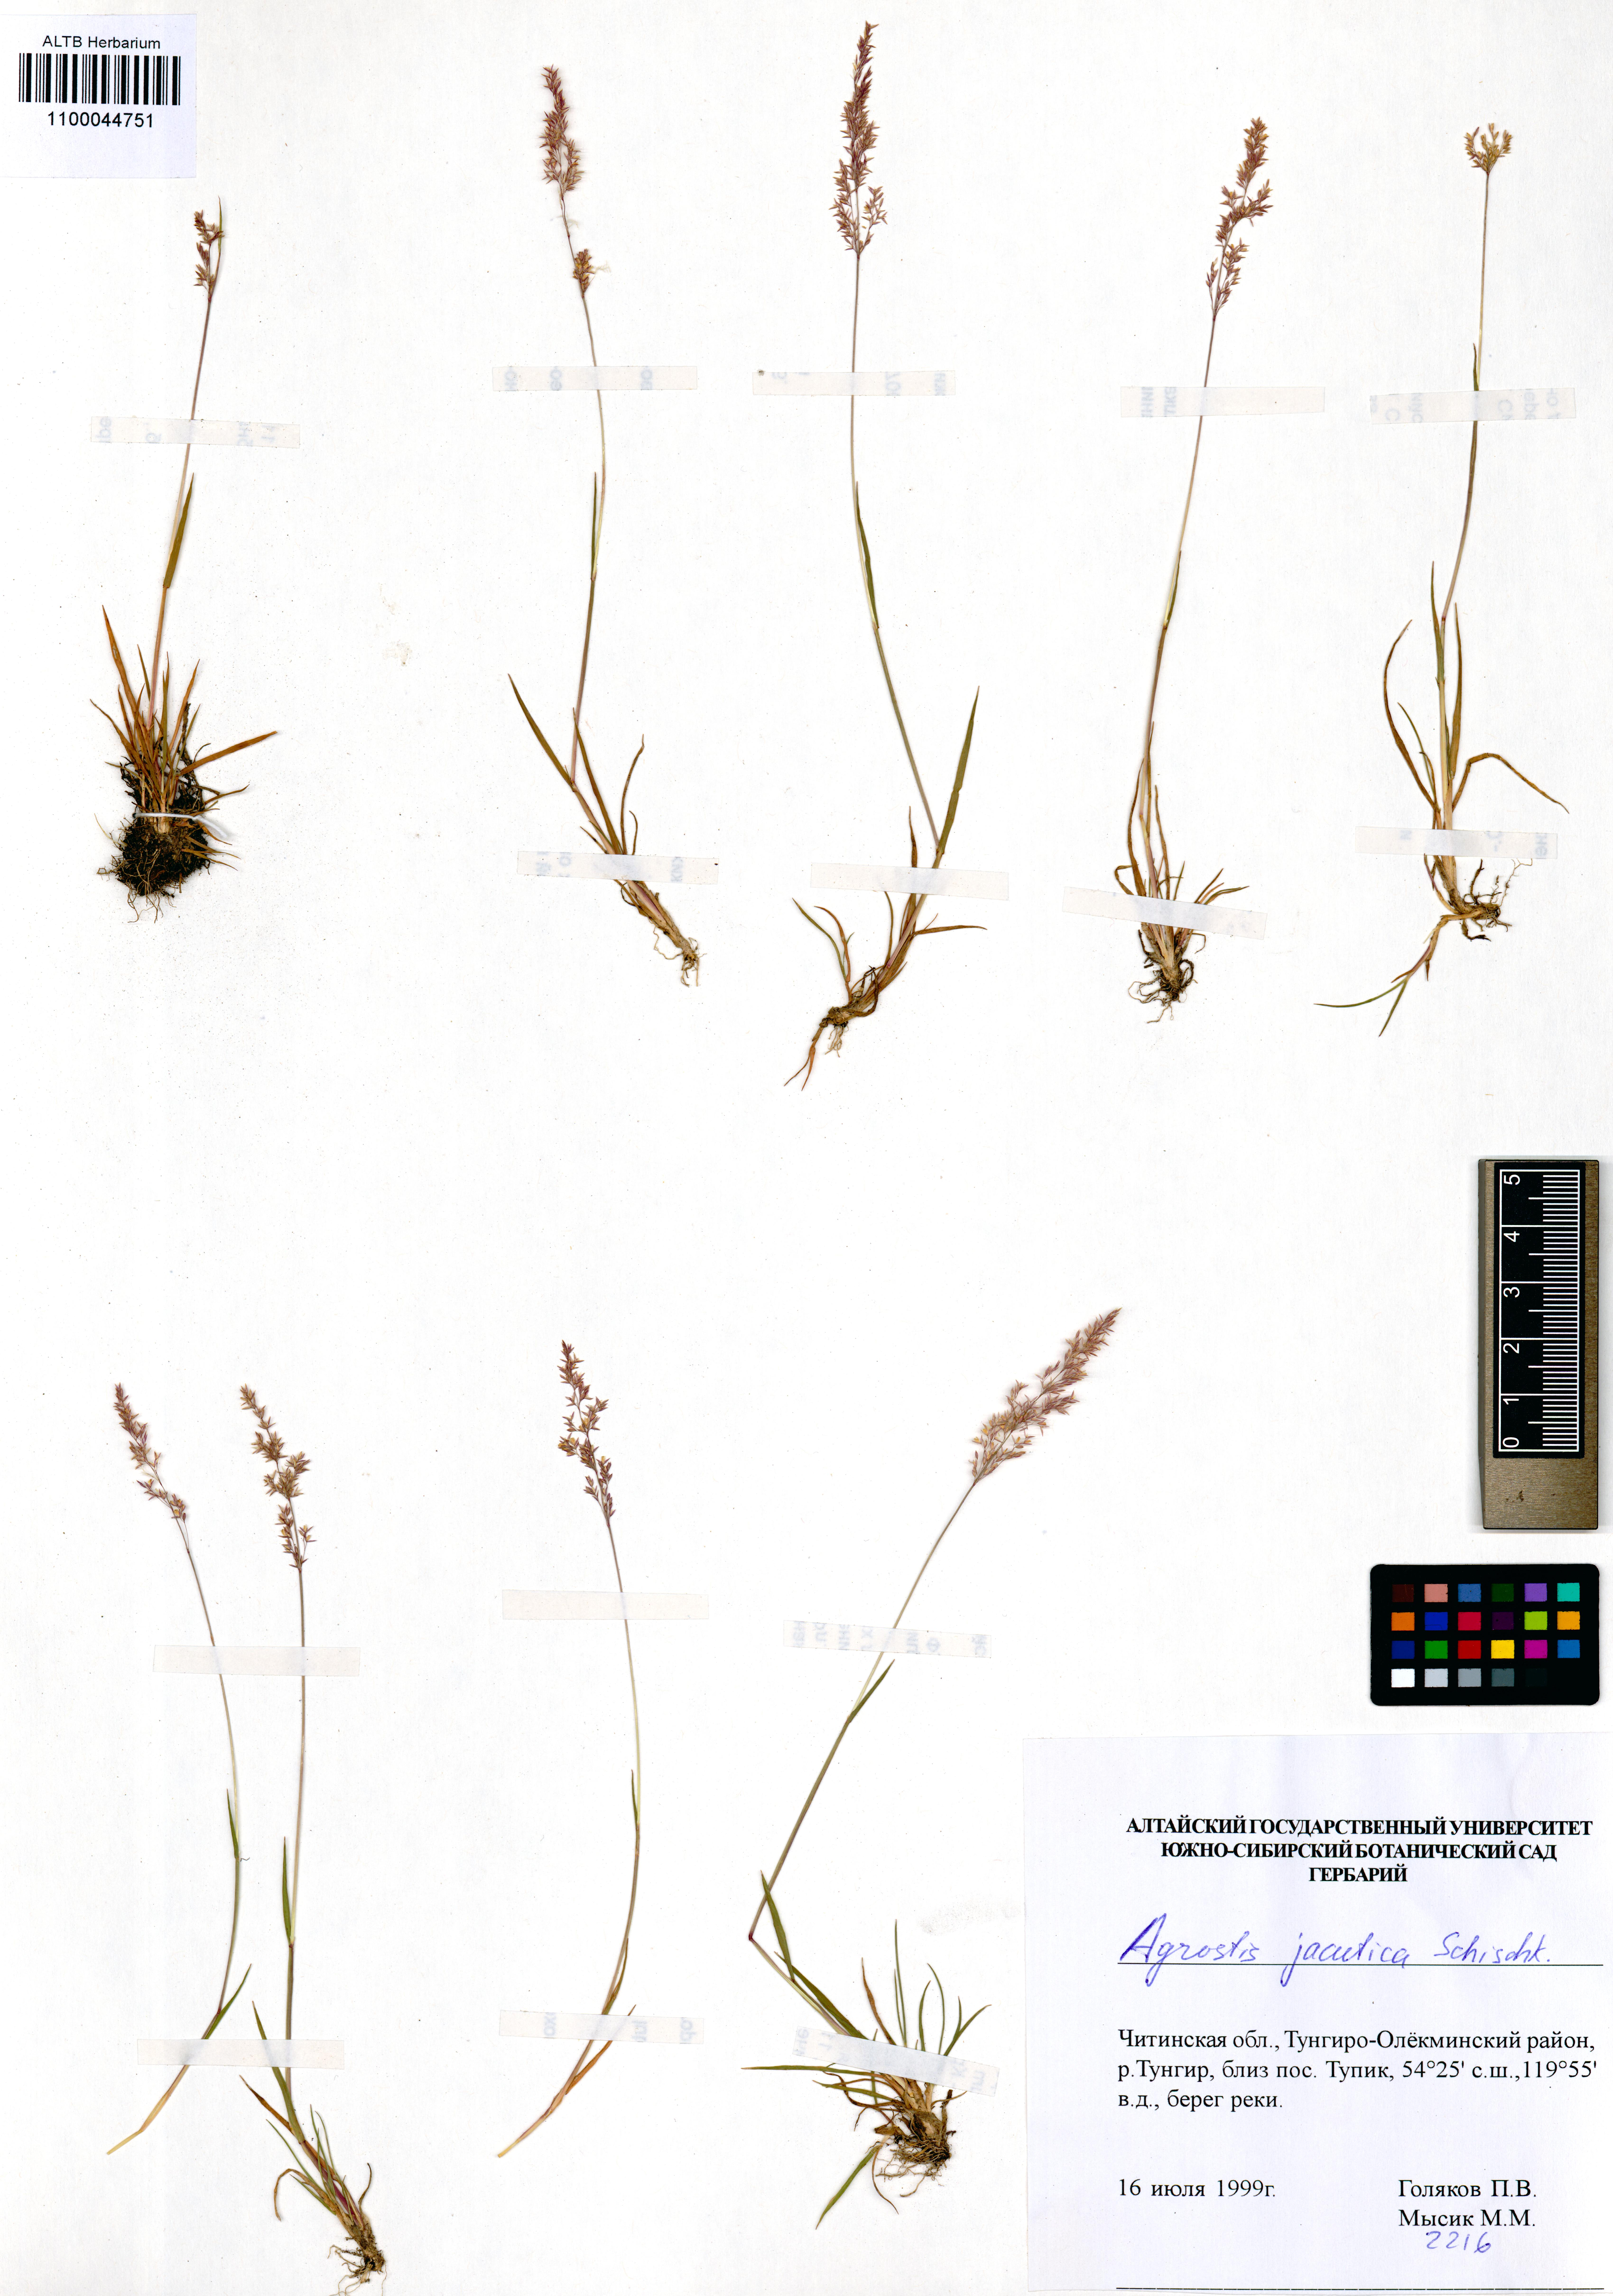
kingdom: Plantae
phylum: Tracheophyta
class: Liliopsida
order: Poales
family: Poaceae
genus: Agrostis
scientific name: Agrostis stolonifera
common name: Creeping bentgrass
